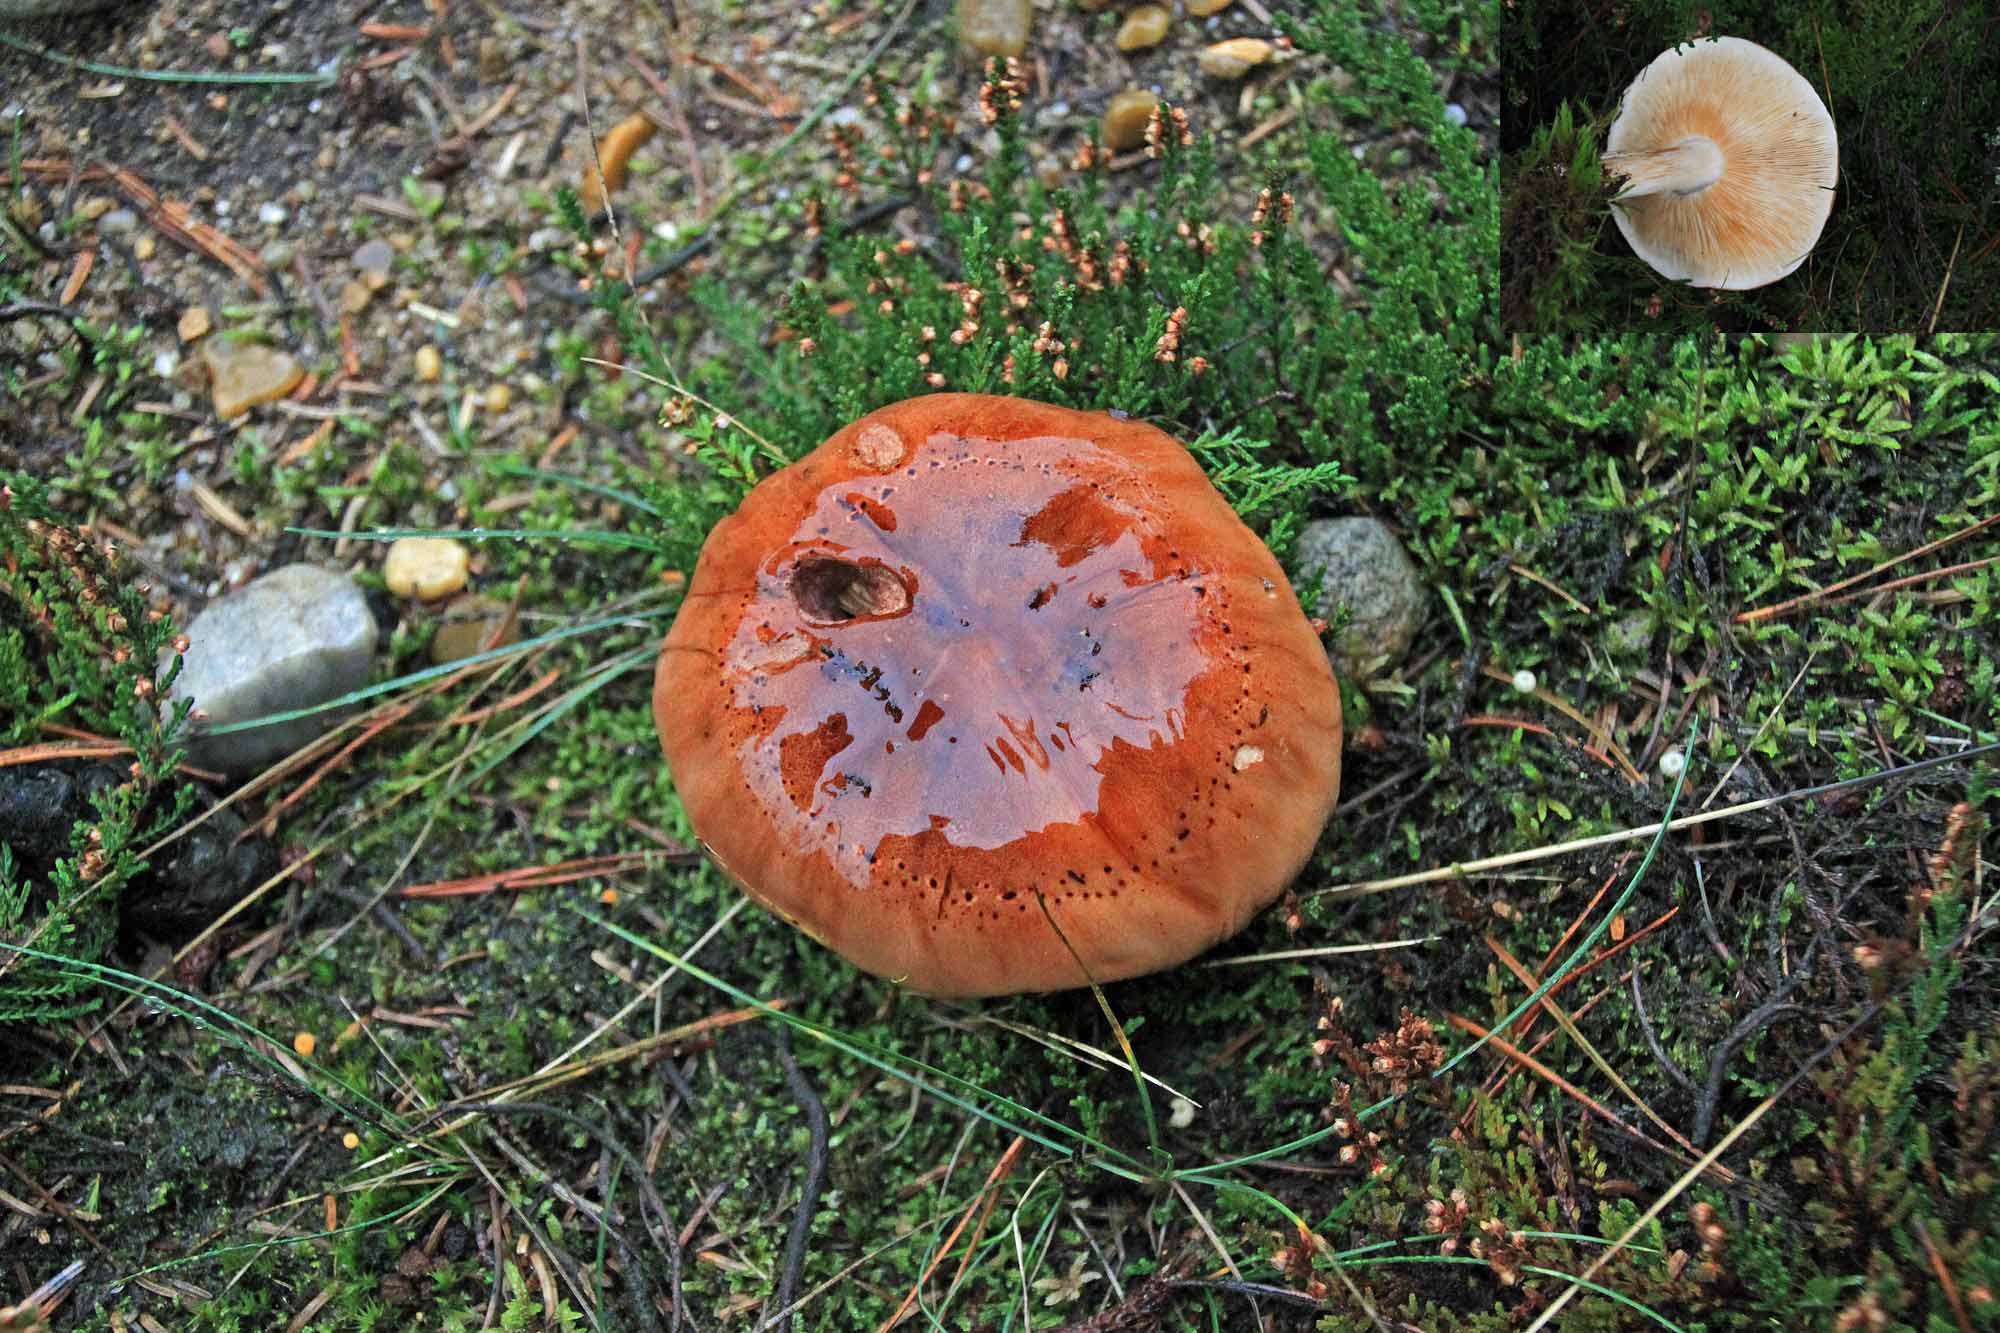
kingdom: Fungi
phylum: Basidiomycota
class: Agaricomycetes
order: Agaricales
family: Tricholomataceae
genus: Tricholoma
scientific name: Tricholoma pessundatum
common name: dråbeplettet ridderhat
